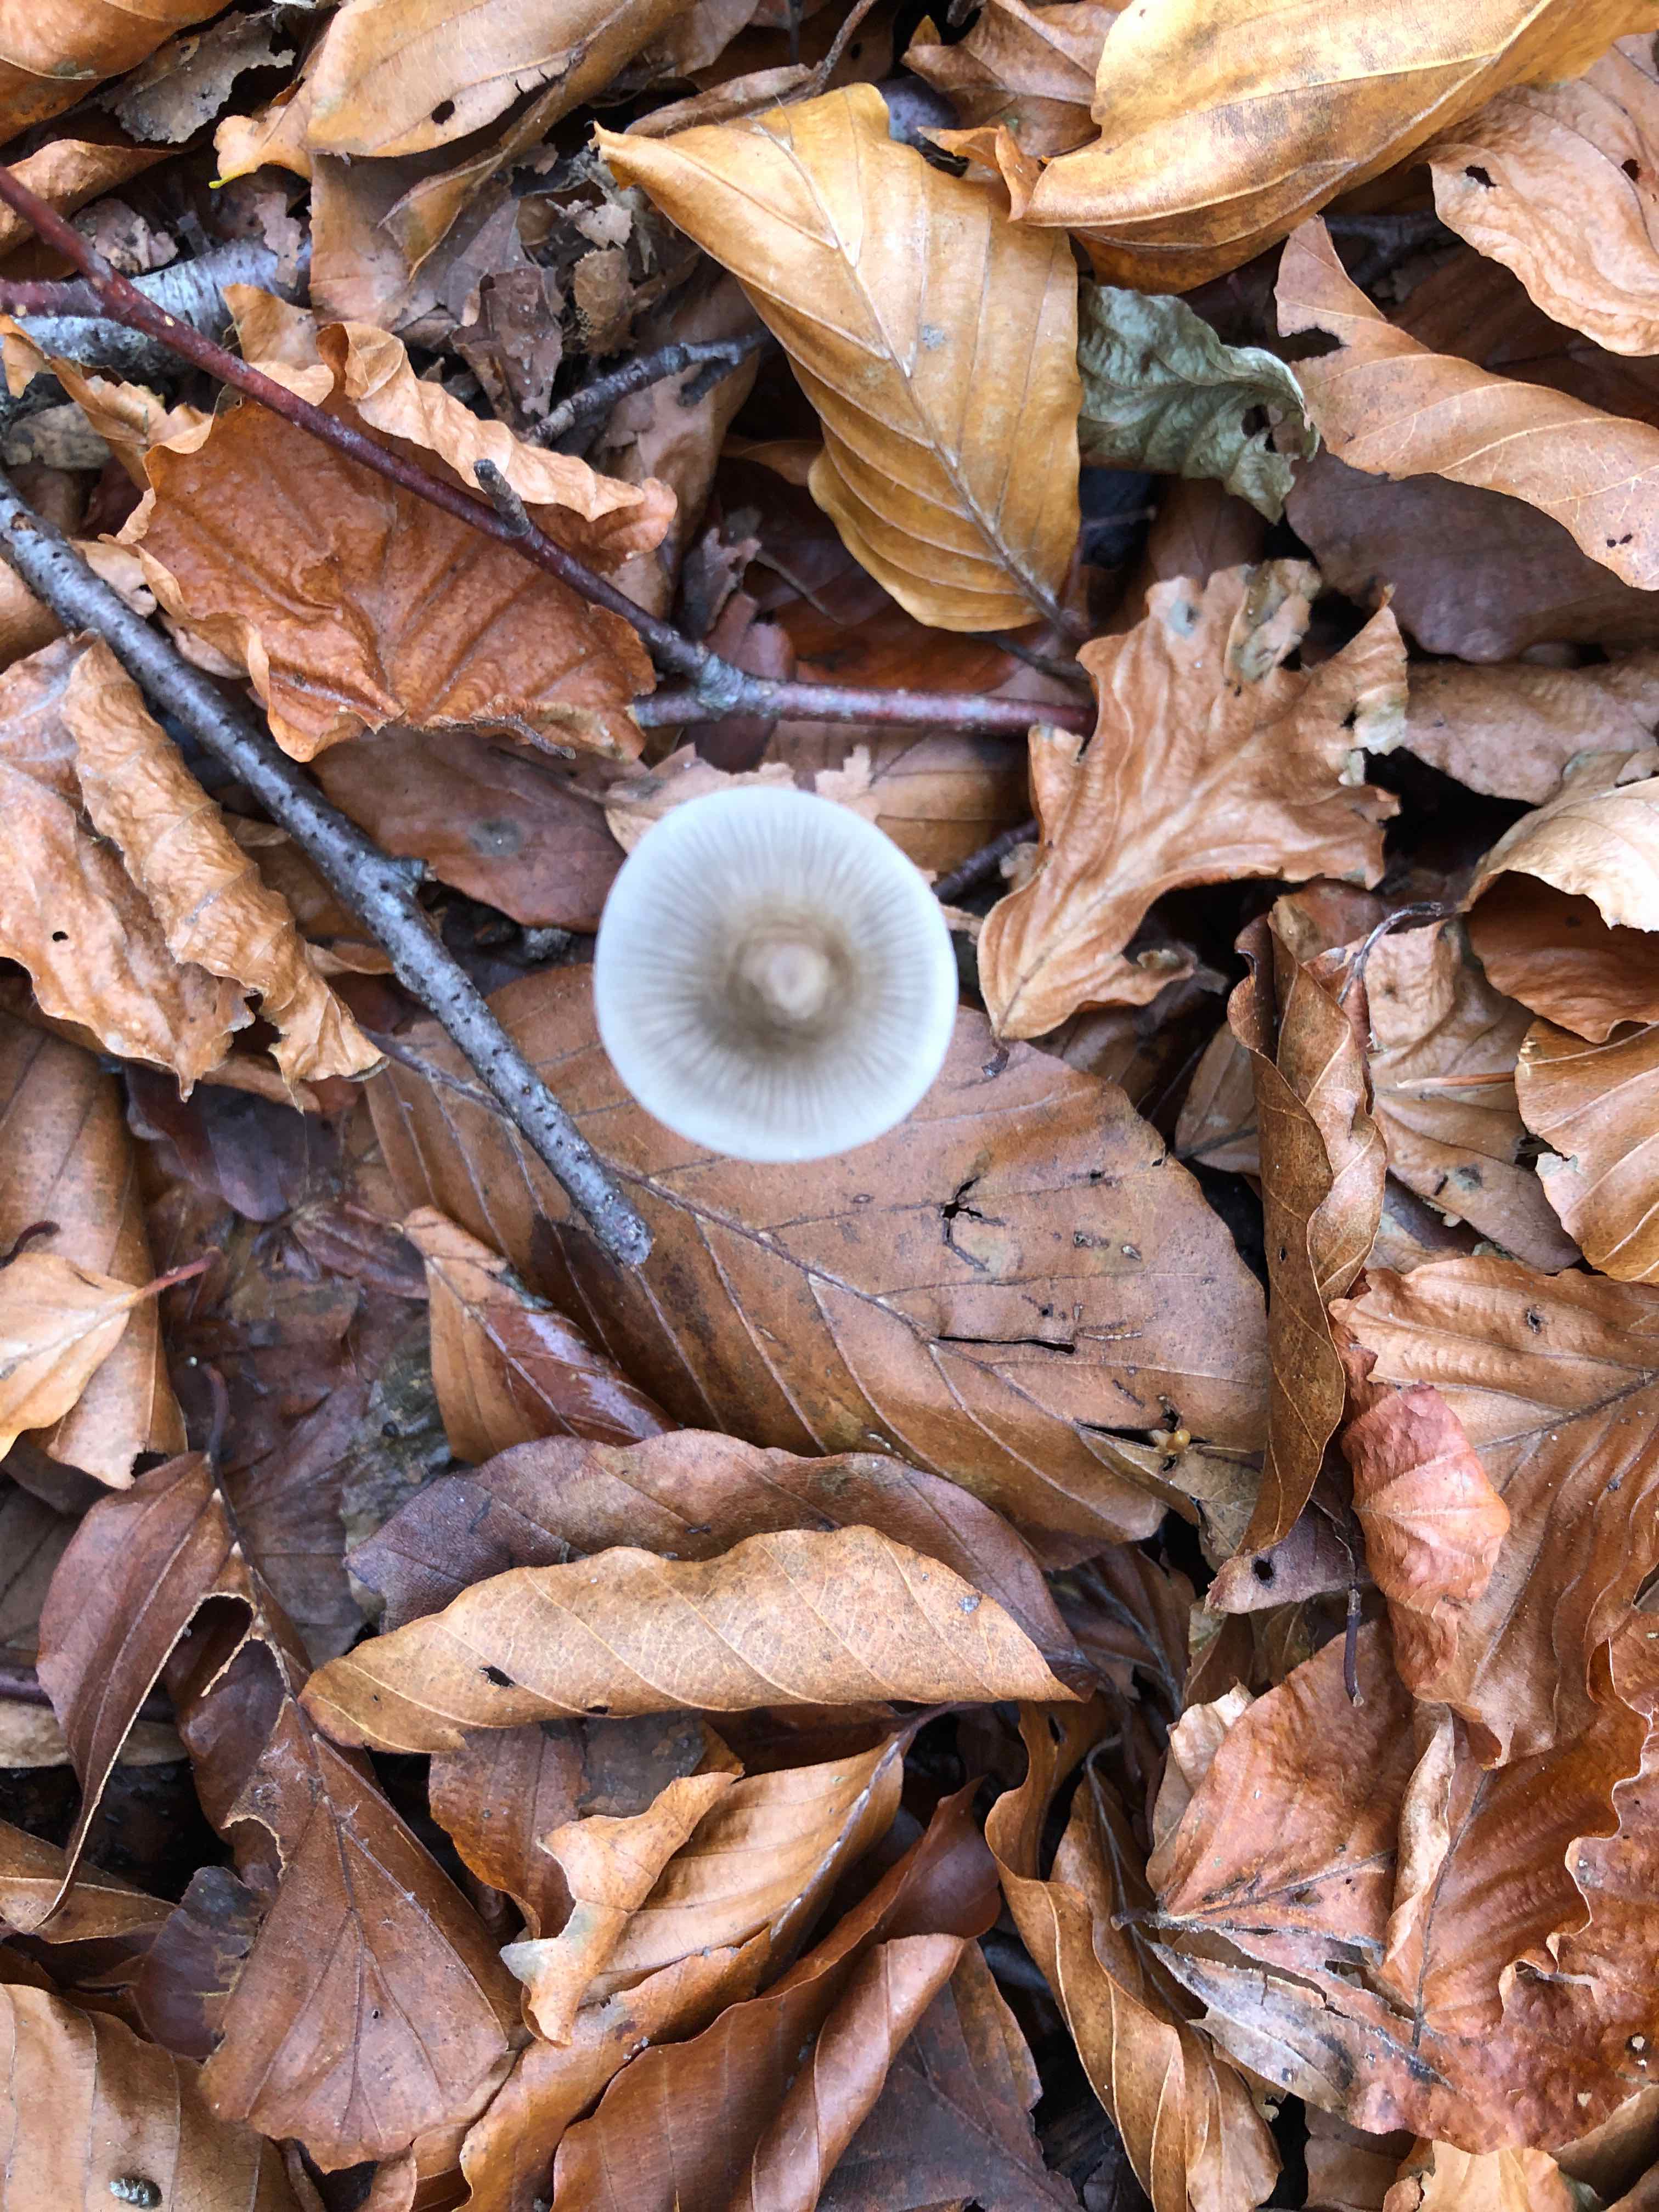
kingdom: Fungi
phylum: Basidiomycota
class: Agaricomycetes
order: Agaricales
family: Mycenaceae
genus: Mycena
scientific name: Mycena polygramma
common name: mangestribet huesvamp
